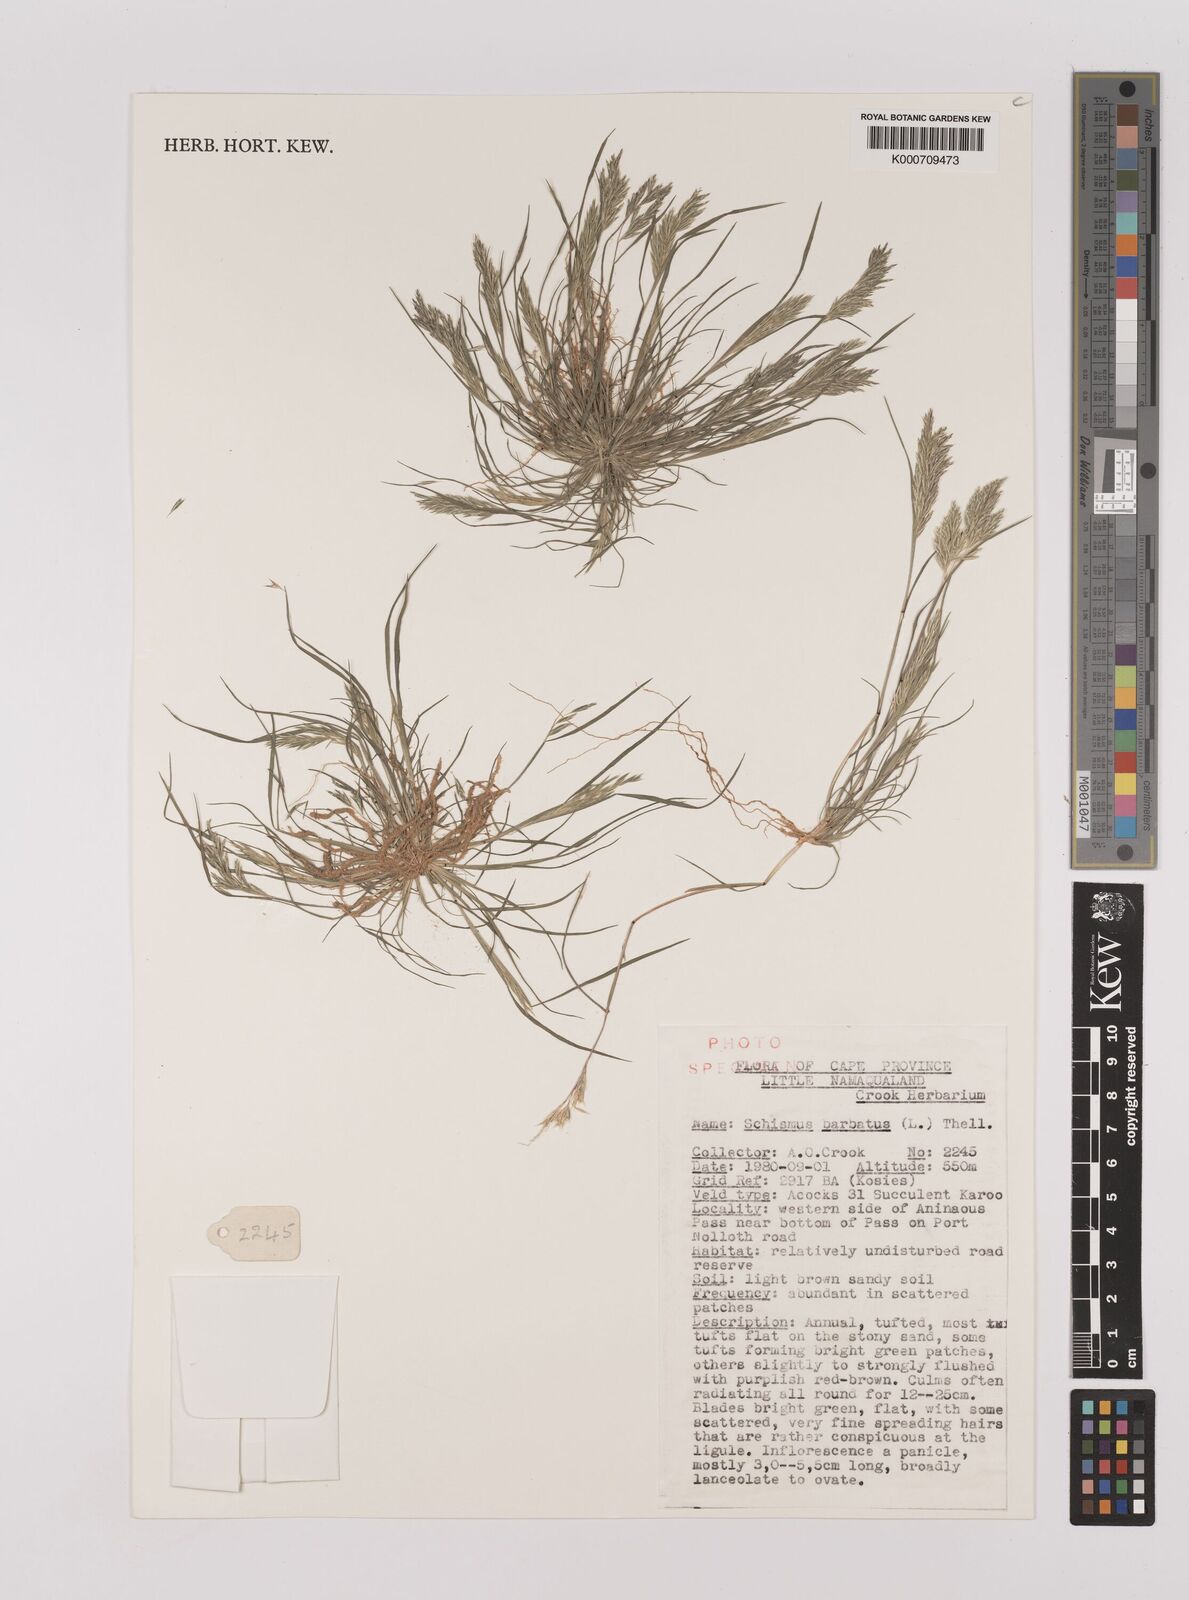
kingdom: Plantae
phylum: Tracheophyta
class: Liliopsida
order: Poales
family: Poaceae
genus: Schismus
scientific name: Schismus barbatus
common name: Kelch-grass
